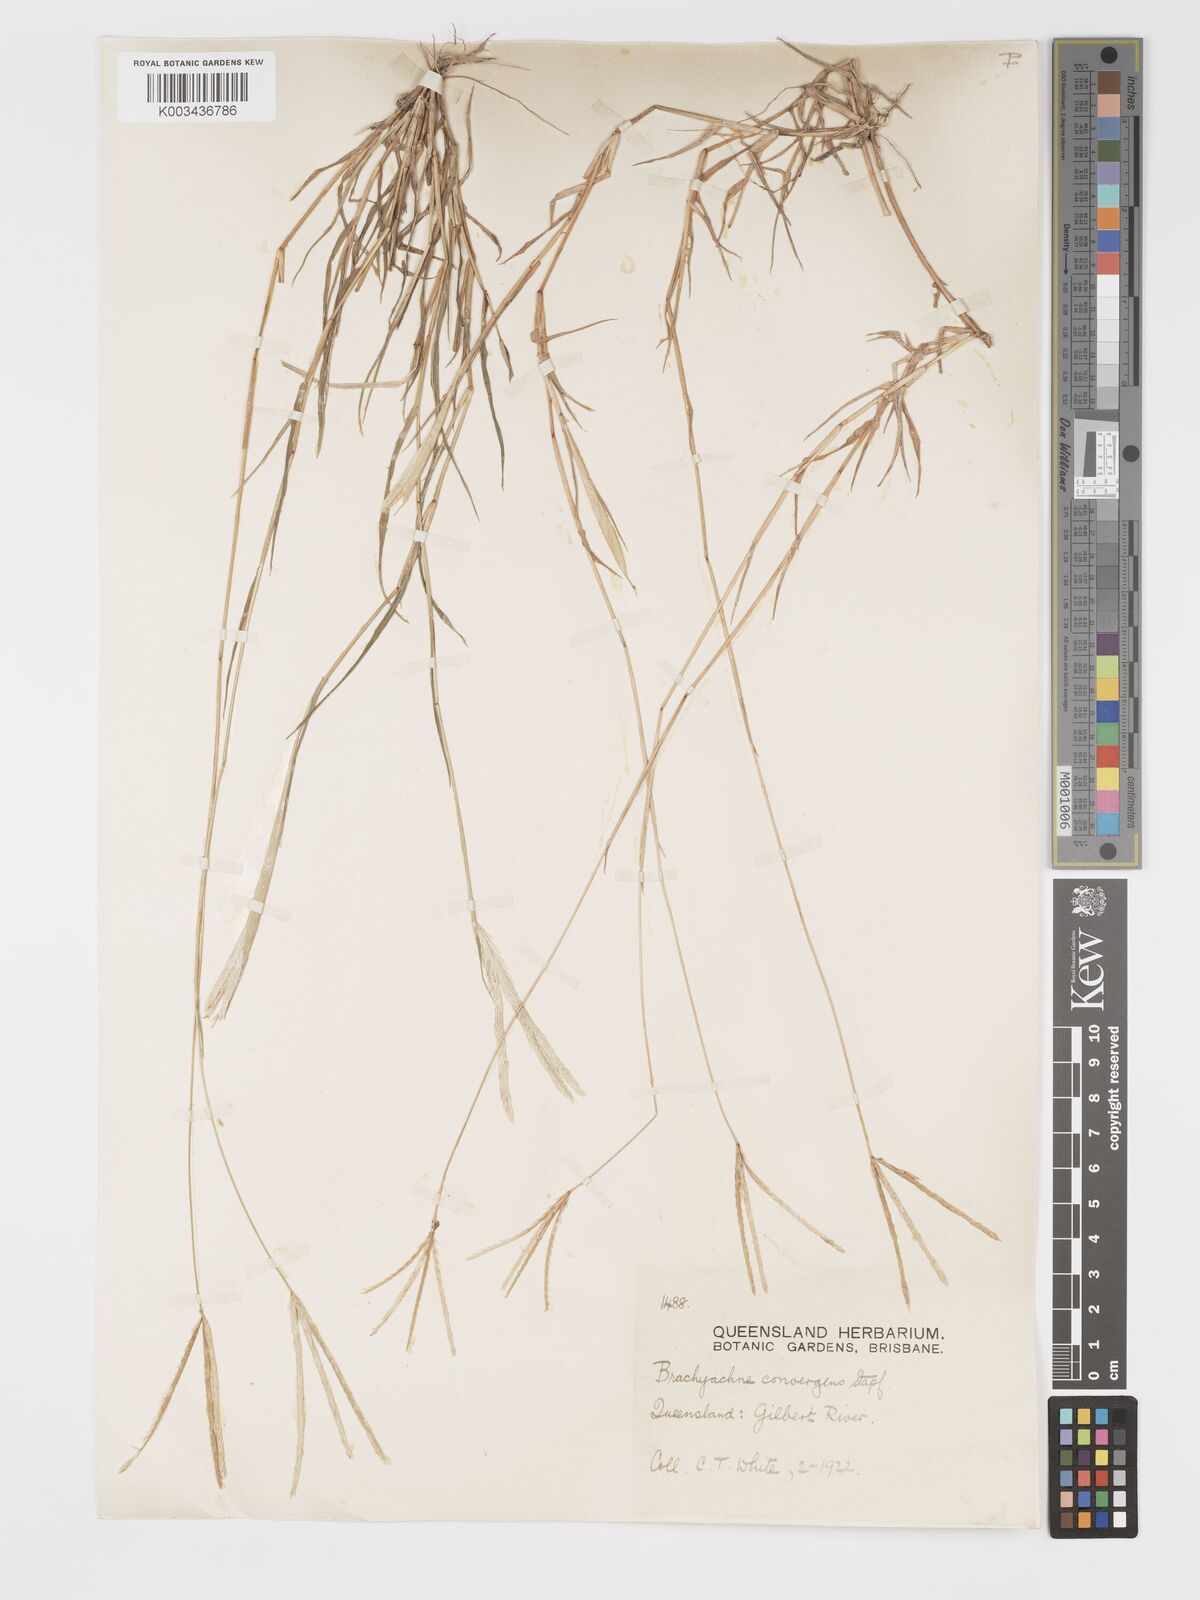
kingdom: Plantae
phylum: Tracheophyta
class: Liliopsida
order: Poales
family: Poaceae
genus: Cynodon
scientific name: Cynodon convergens
